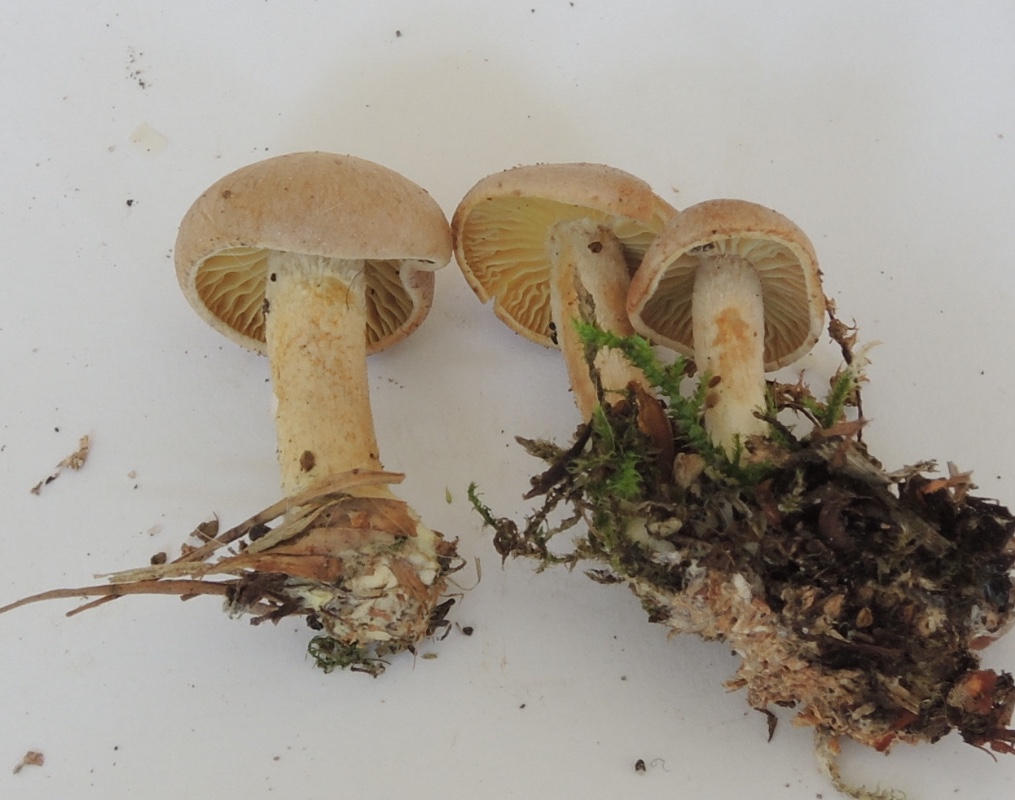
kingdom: Fungi
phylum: Basidiomycota
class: Agaricomycetes
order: Agaricales
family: Omphalotaceae
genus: Collybiopsis
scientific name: Collybiopsis peronata
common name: bestøvlet fladhat
